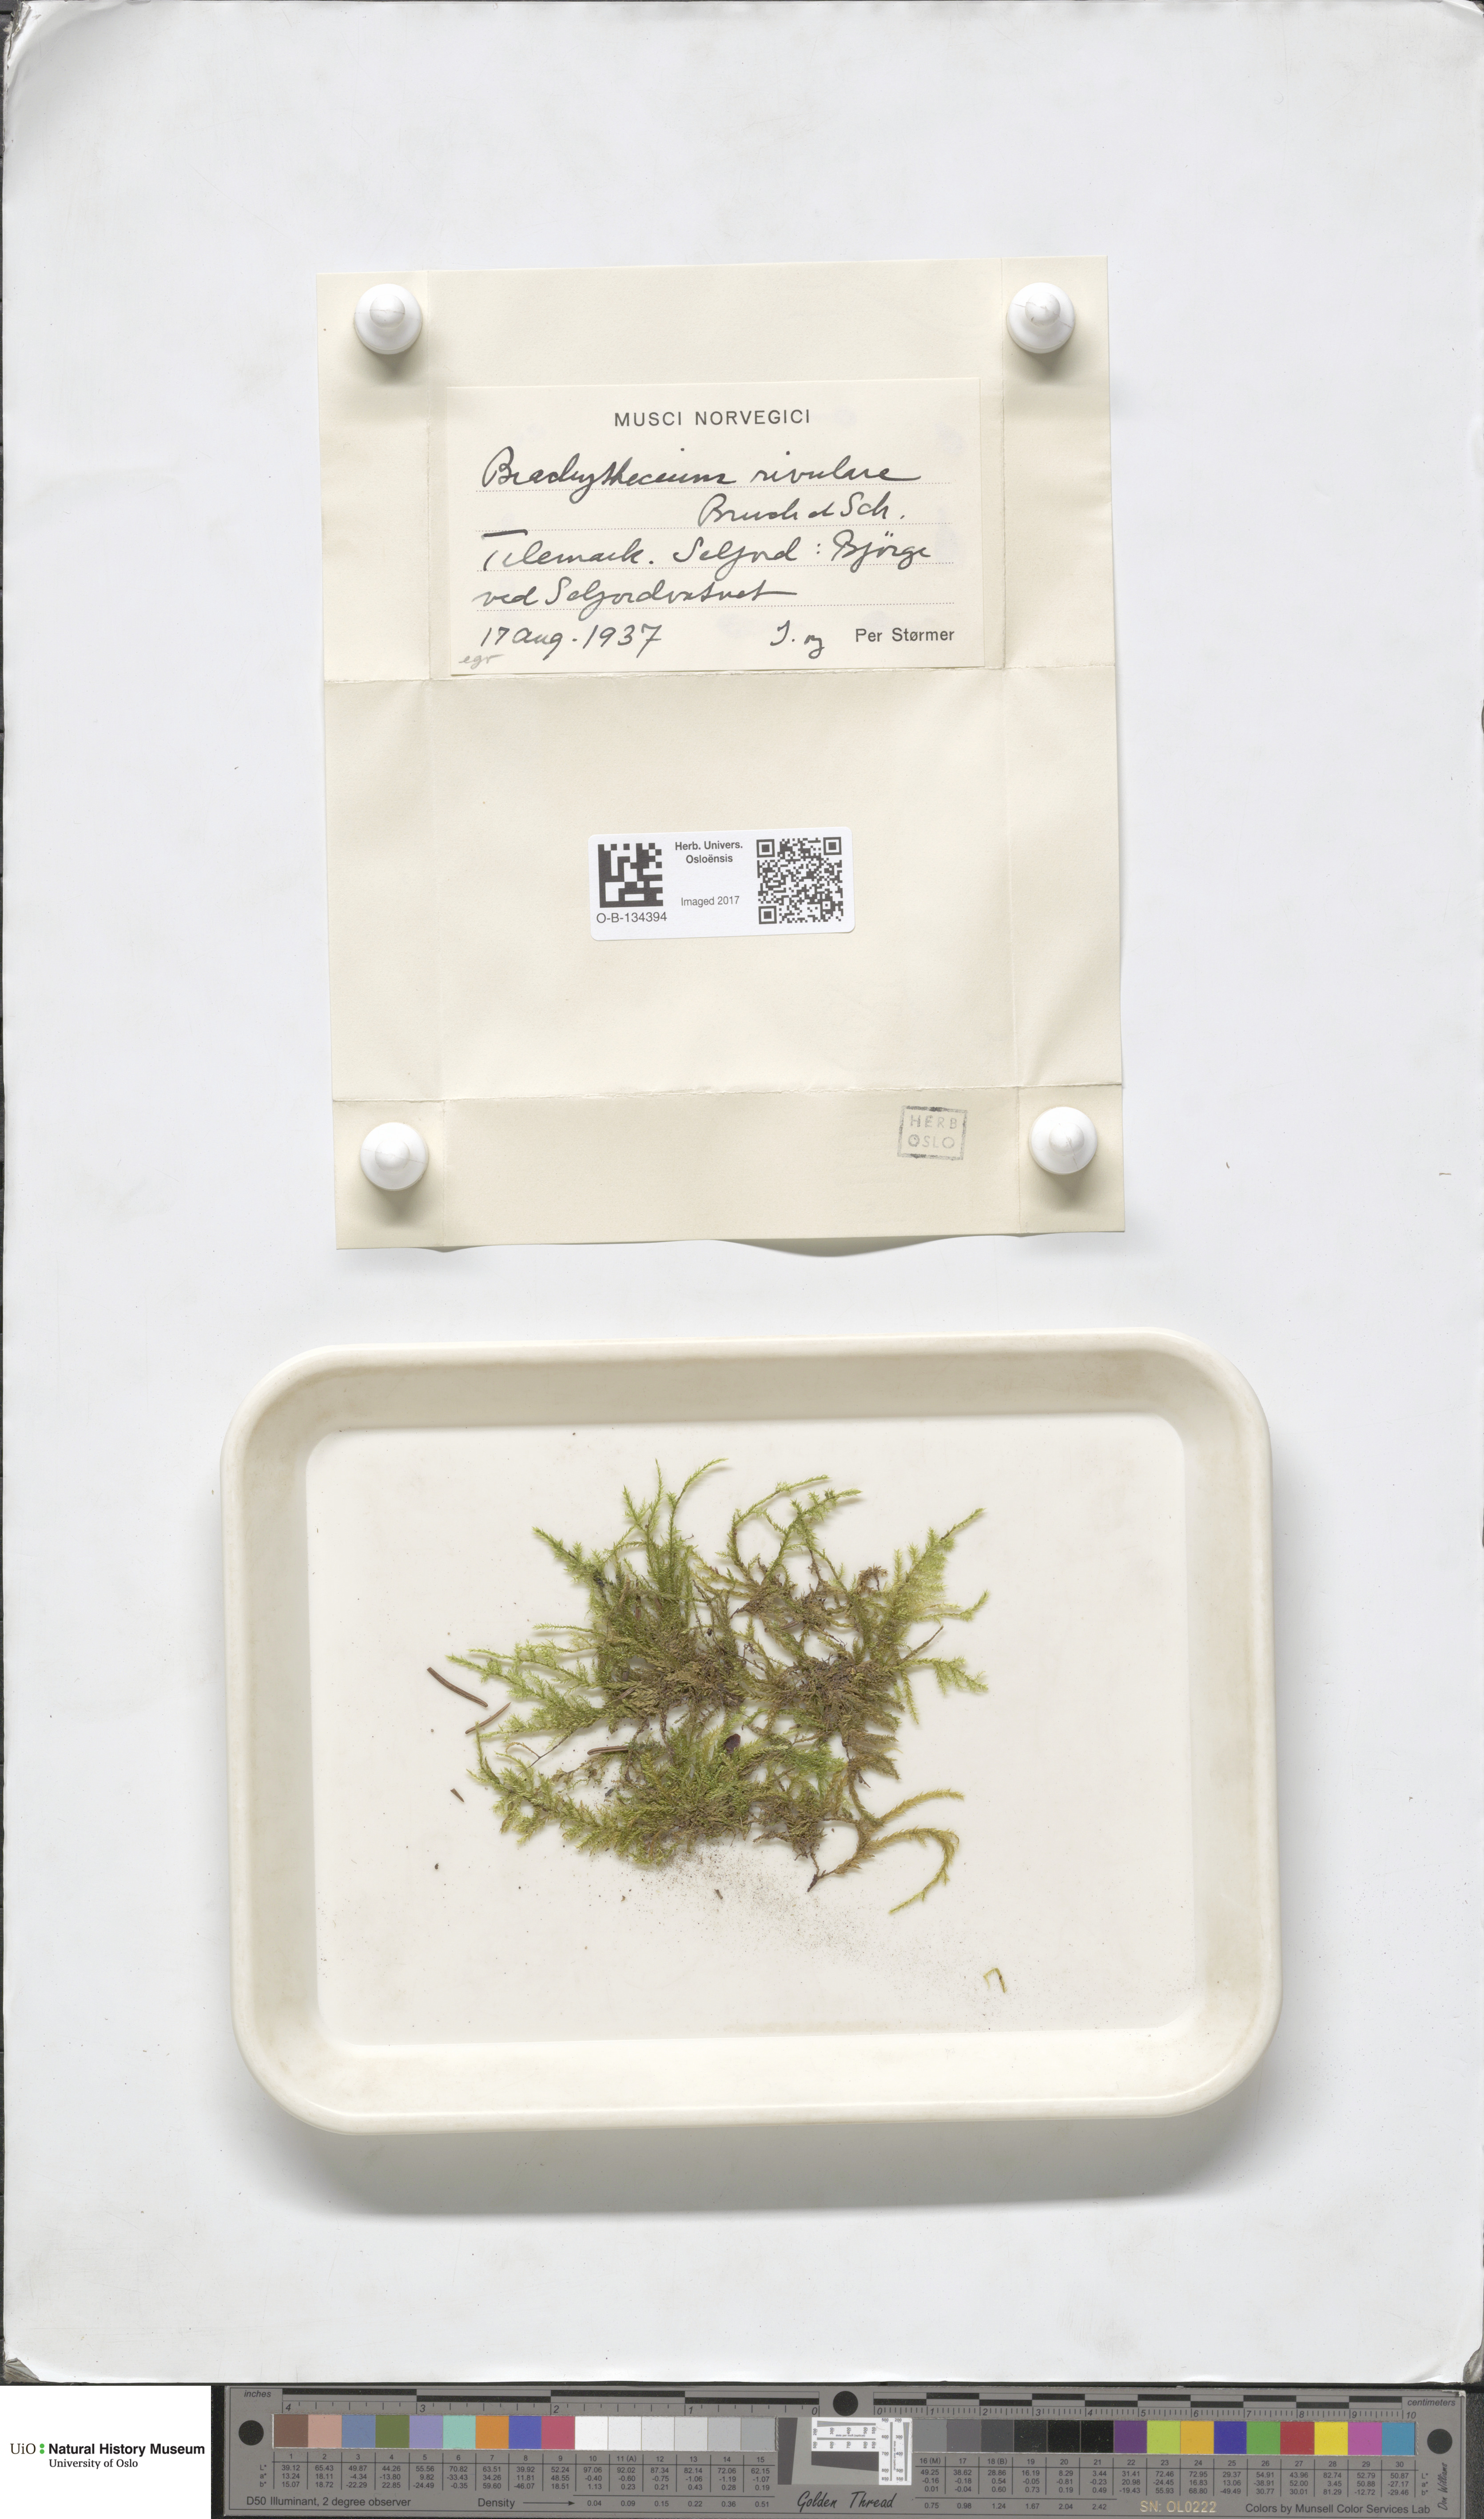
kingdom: Plantae
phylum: Bryophyta
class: Bryopsida
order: Hypnales
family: Brachytheciaceae
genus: Brachythecium
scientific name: Brachythecium rivulare
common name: River ragged moss
